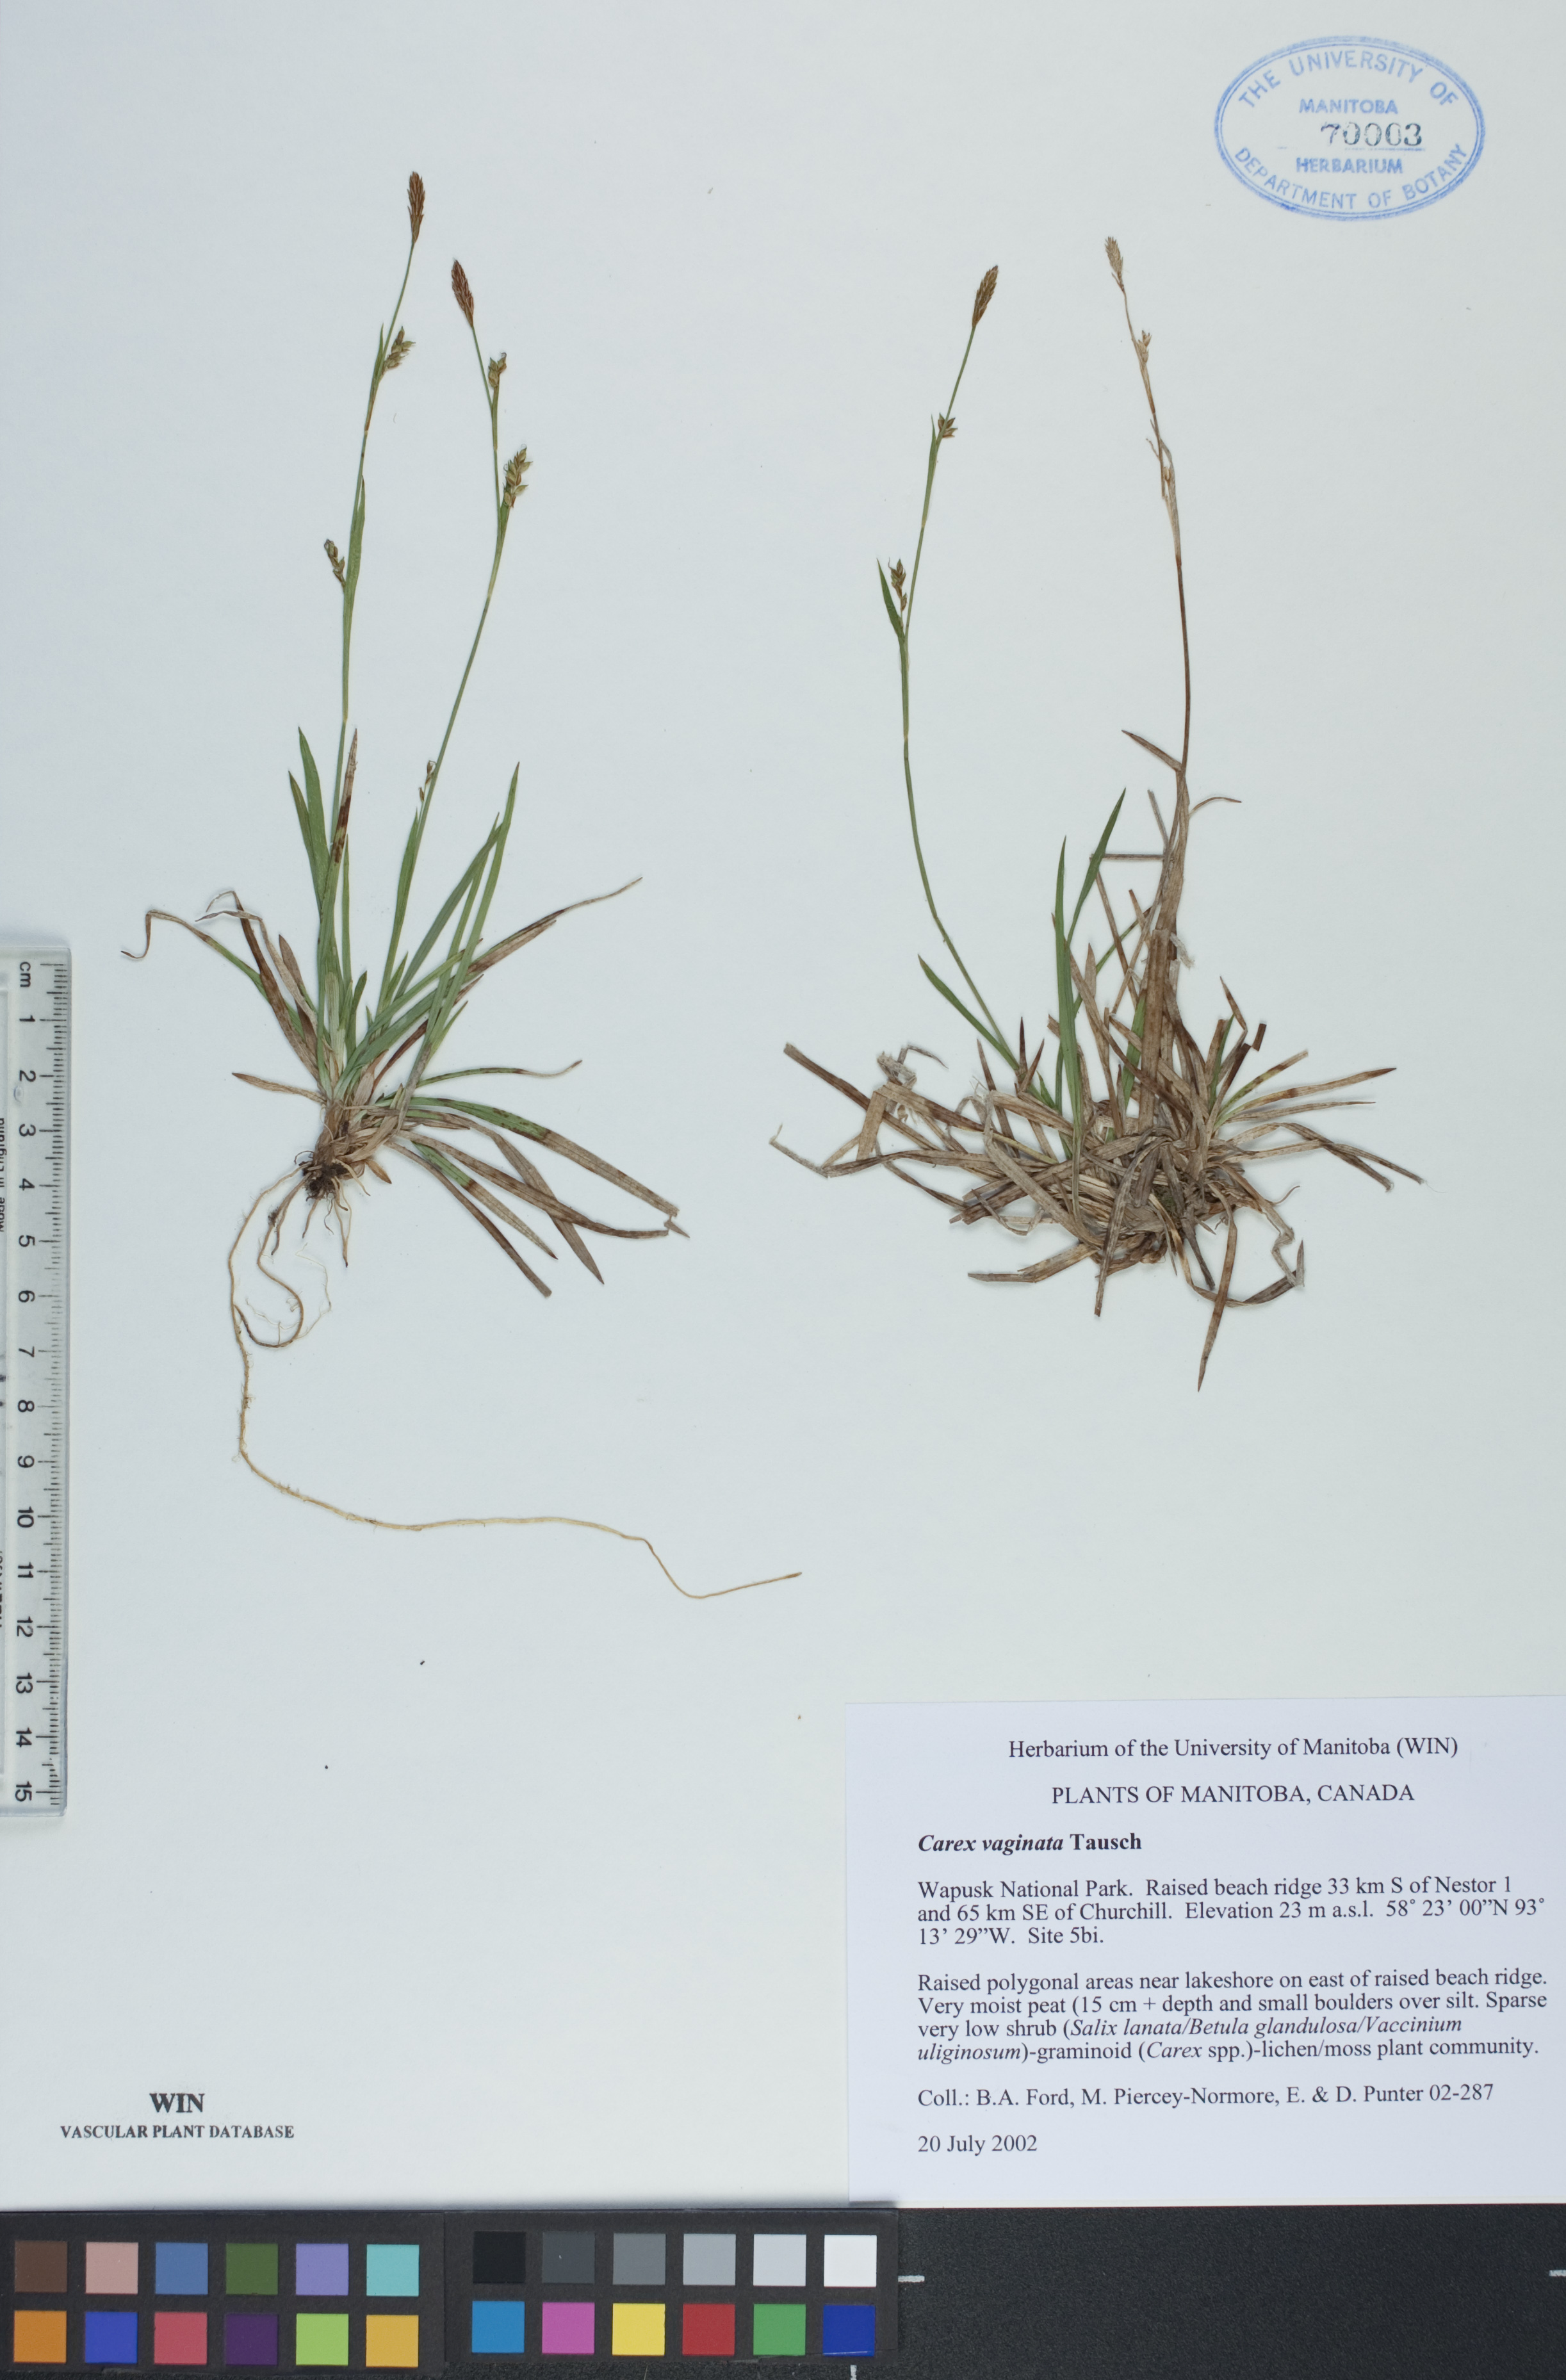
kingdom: Plantae
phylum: Tracheophyta
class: Liliopsida
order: Poales
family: Cyperaceae
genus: Carex
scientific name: Carex vaginata
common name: Sheathed sedge
